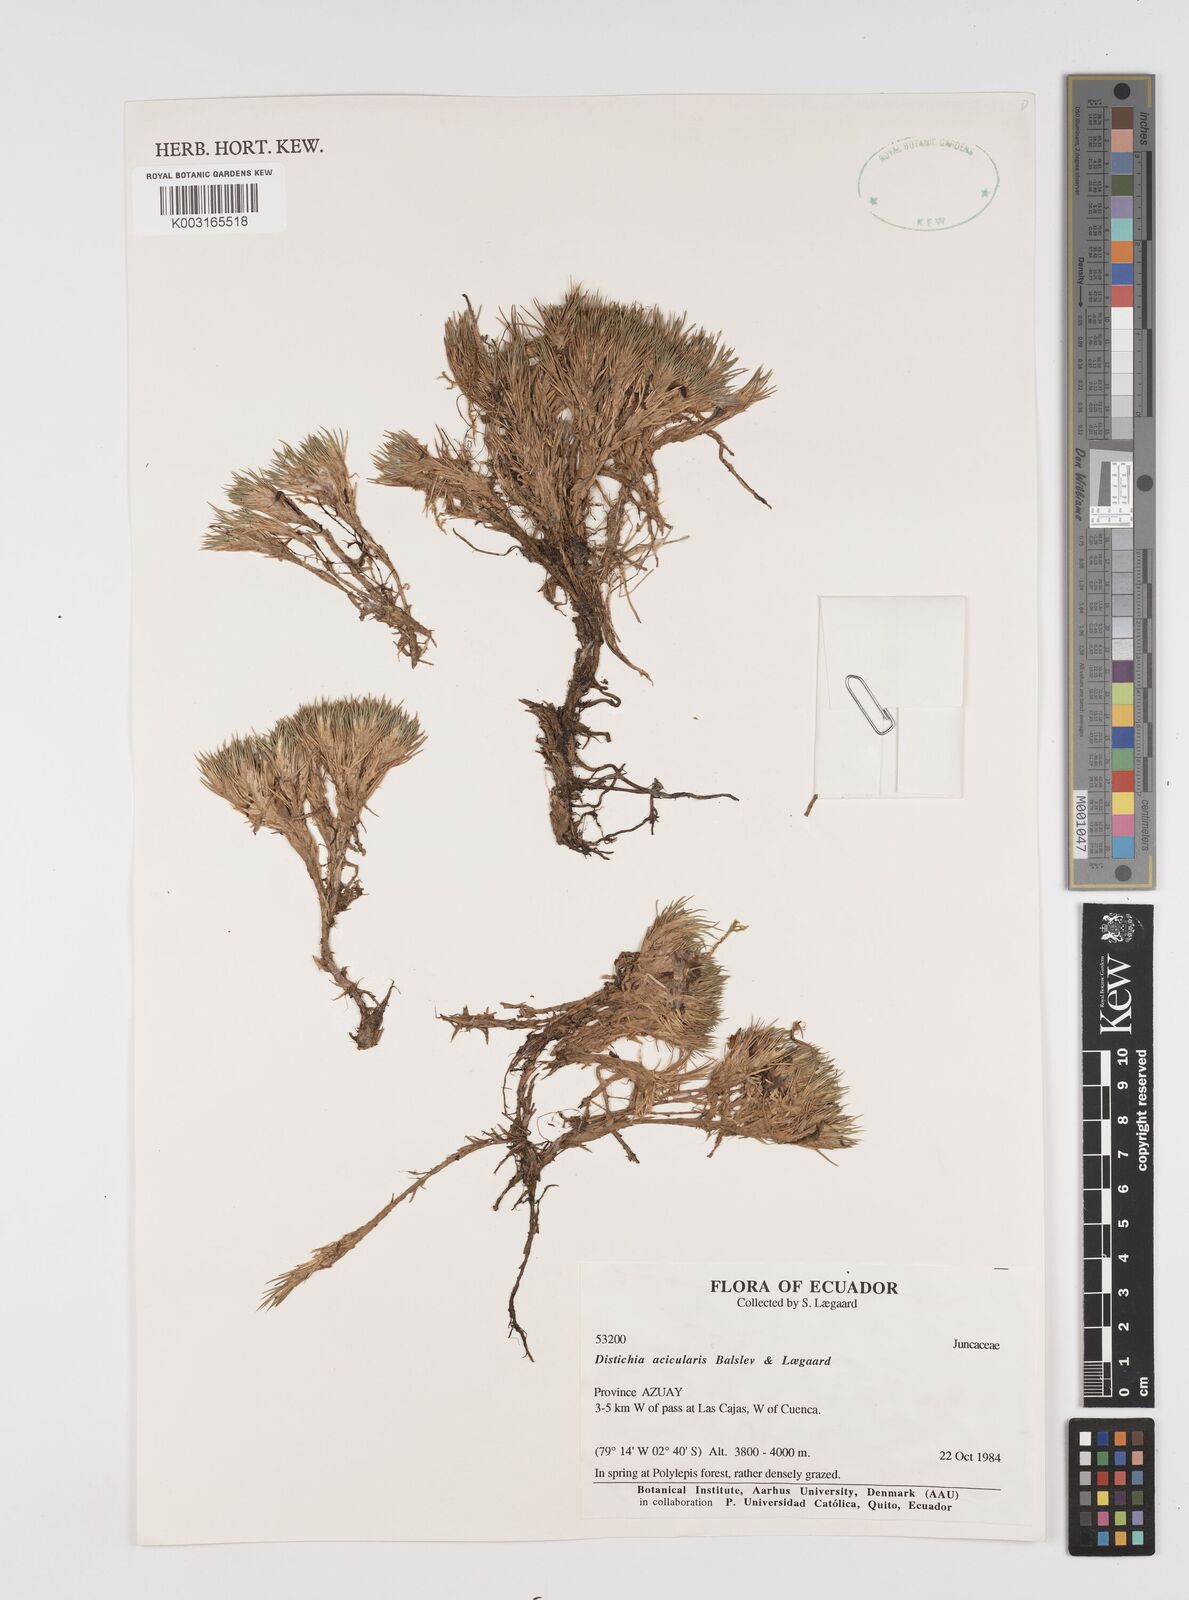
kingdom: Plantae
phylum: Tracheophyta
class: Liliopsida
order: Poales
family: Juncaceae
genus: Distichia
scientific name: Distichia acicularis
